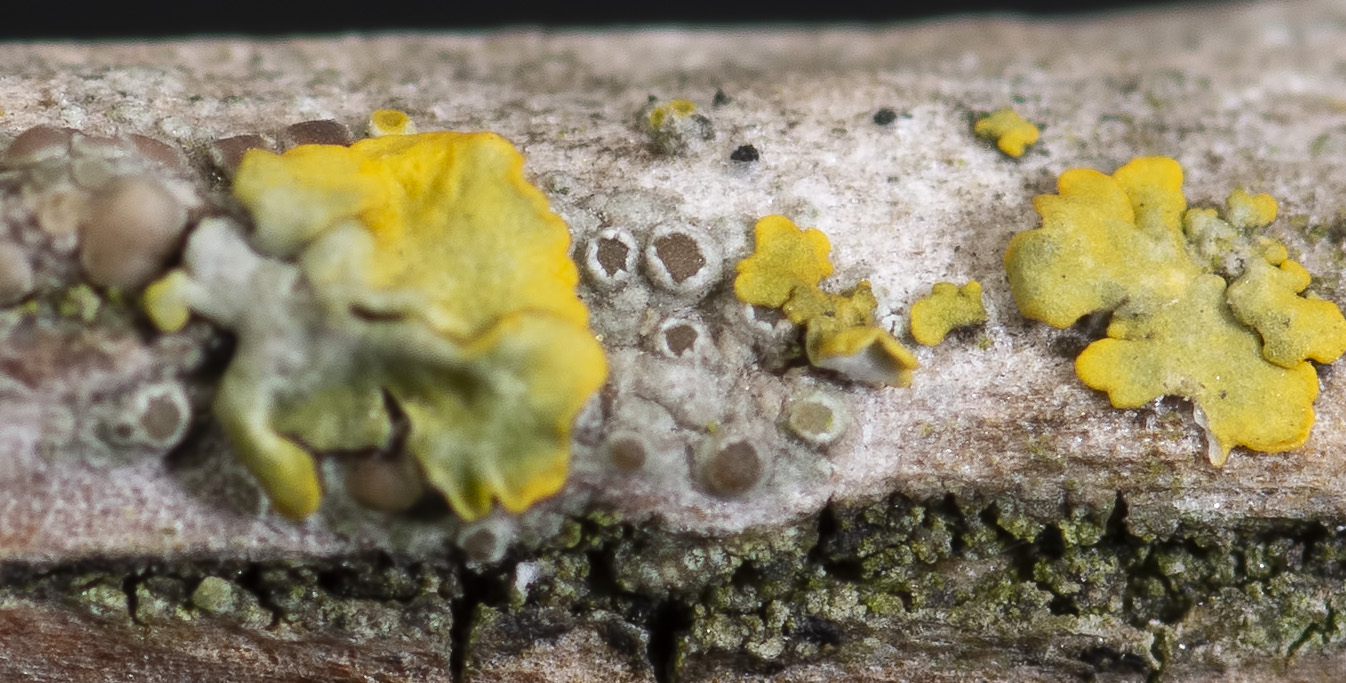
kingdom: Fungi
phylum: Ascomycota
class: Lecanoromycetes
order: Lecanorales
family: Lecanoraceae
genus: Polyozosia
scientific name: Polyozosia sambuci
